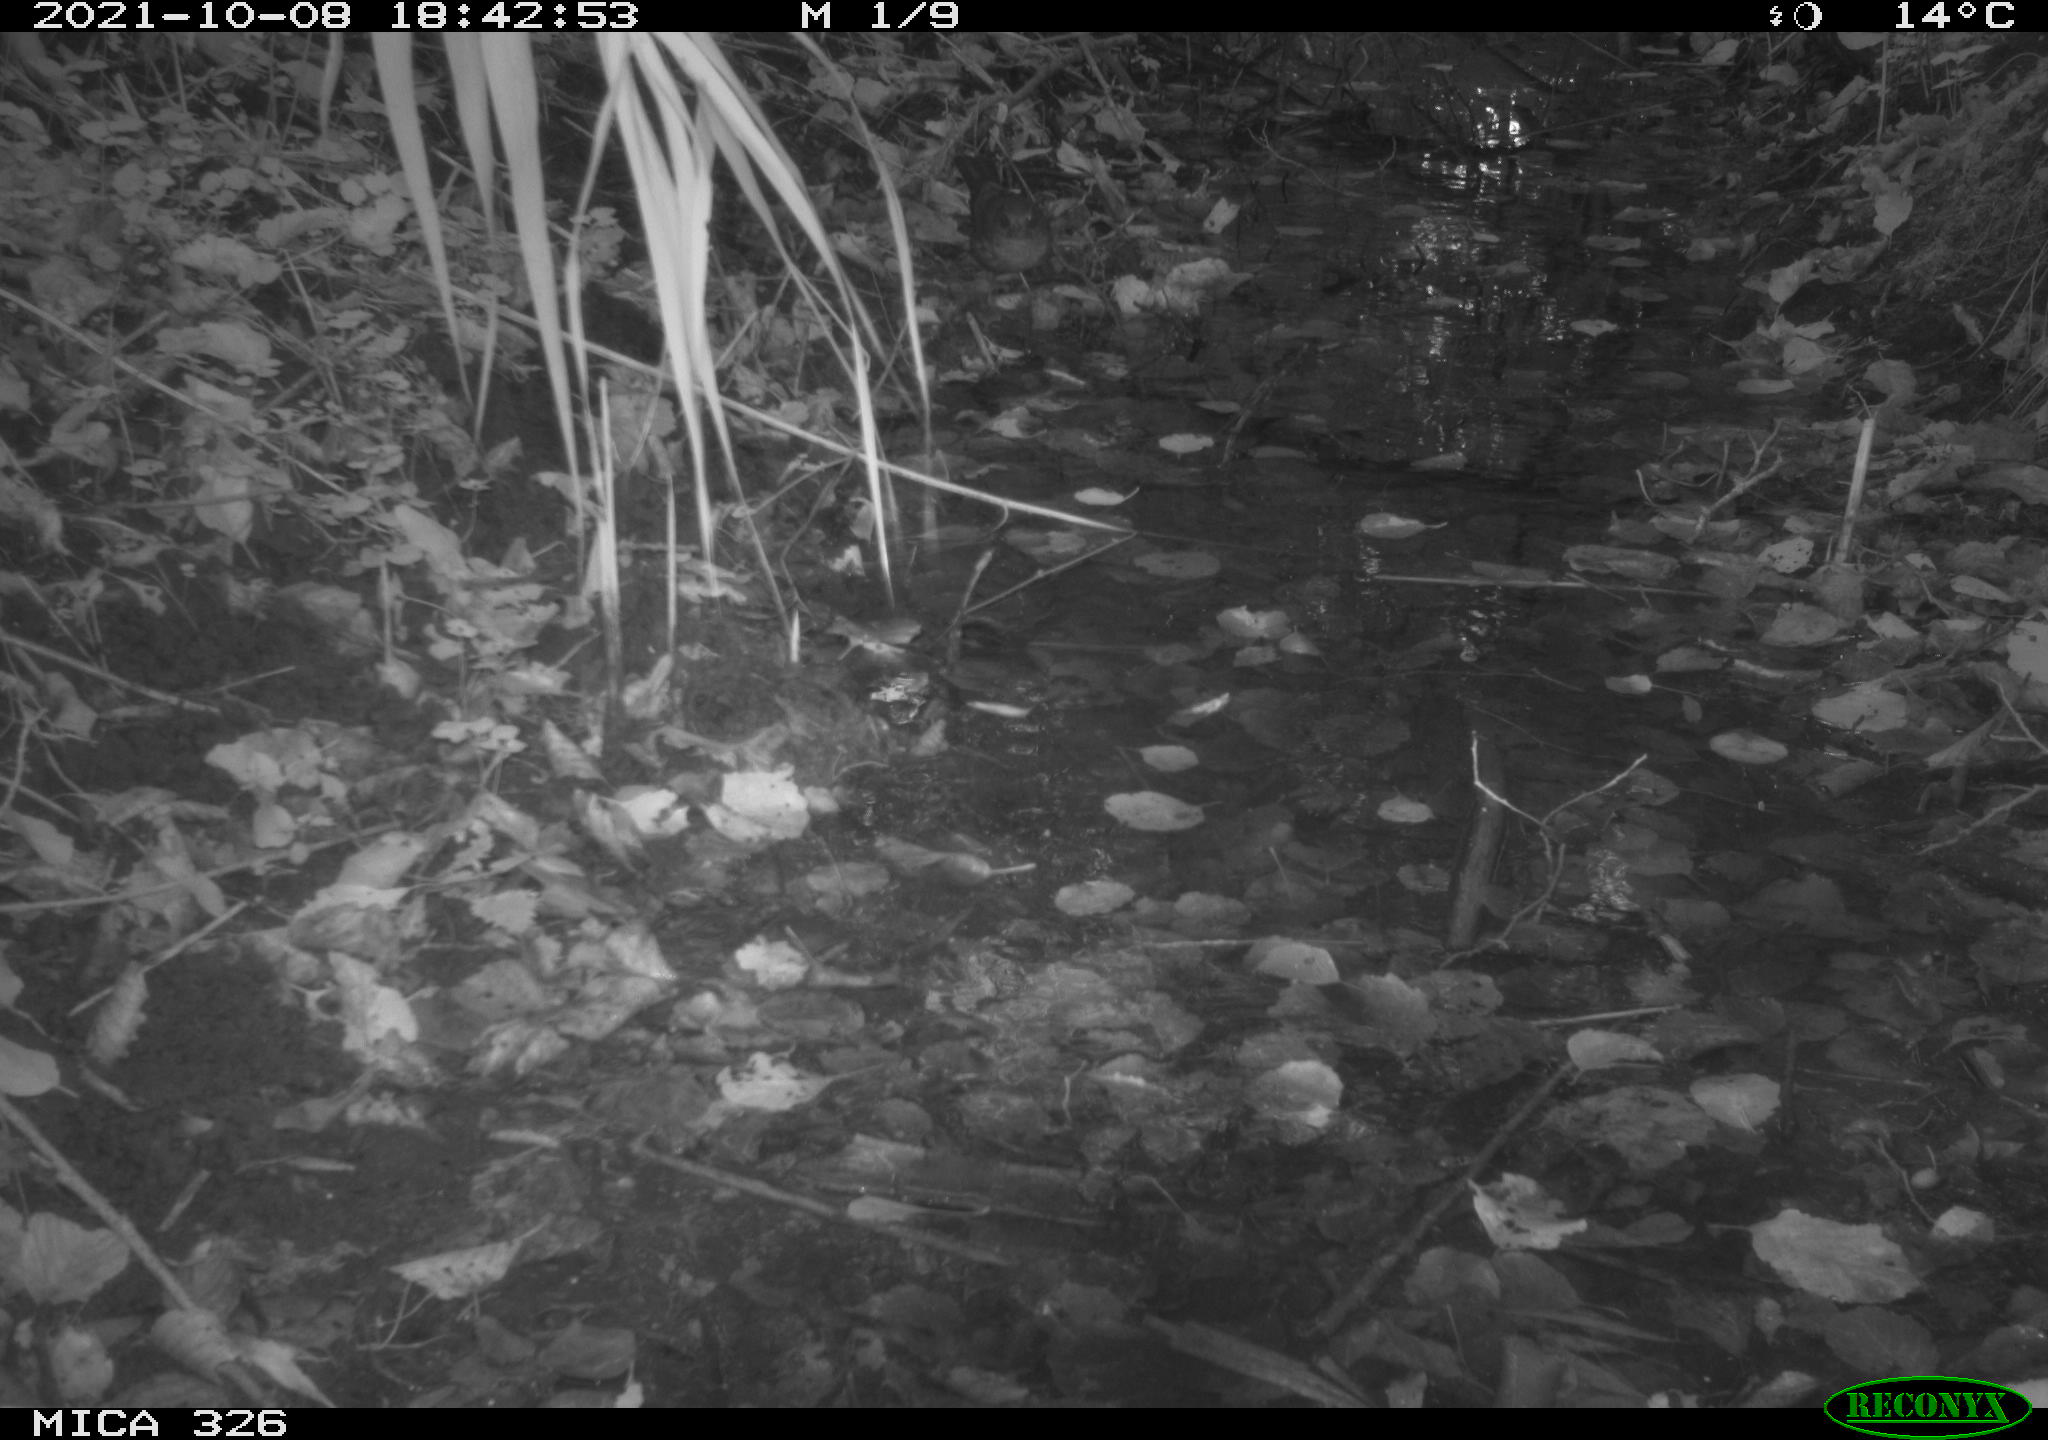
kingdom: Animalia
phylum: Chordata
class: Aves
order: Passeriformes
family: Turdidae
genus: Turdus
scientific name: Turdus merula
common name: Common blackbird
